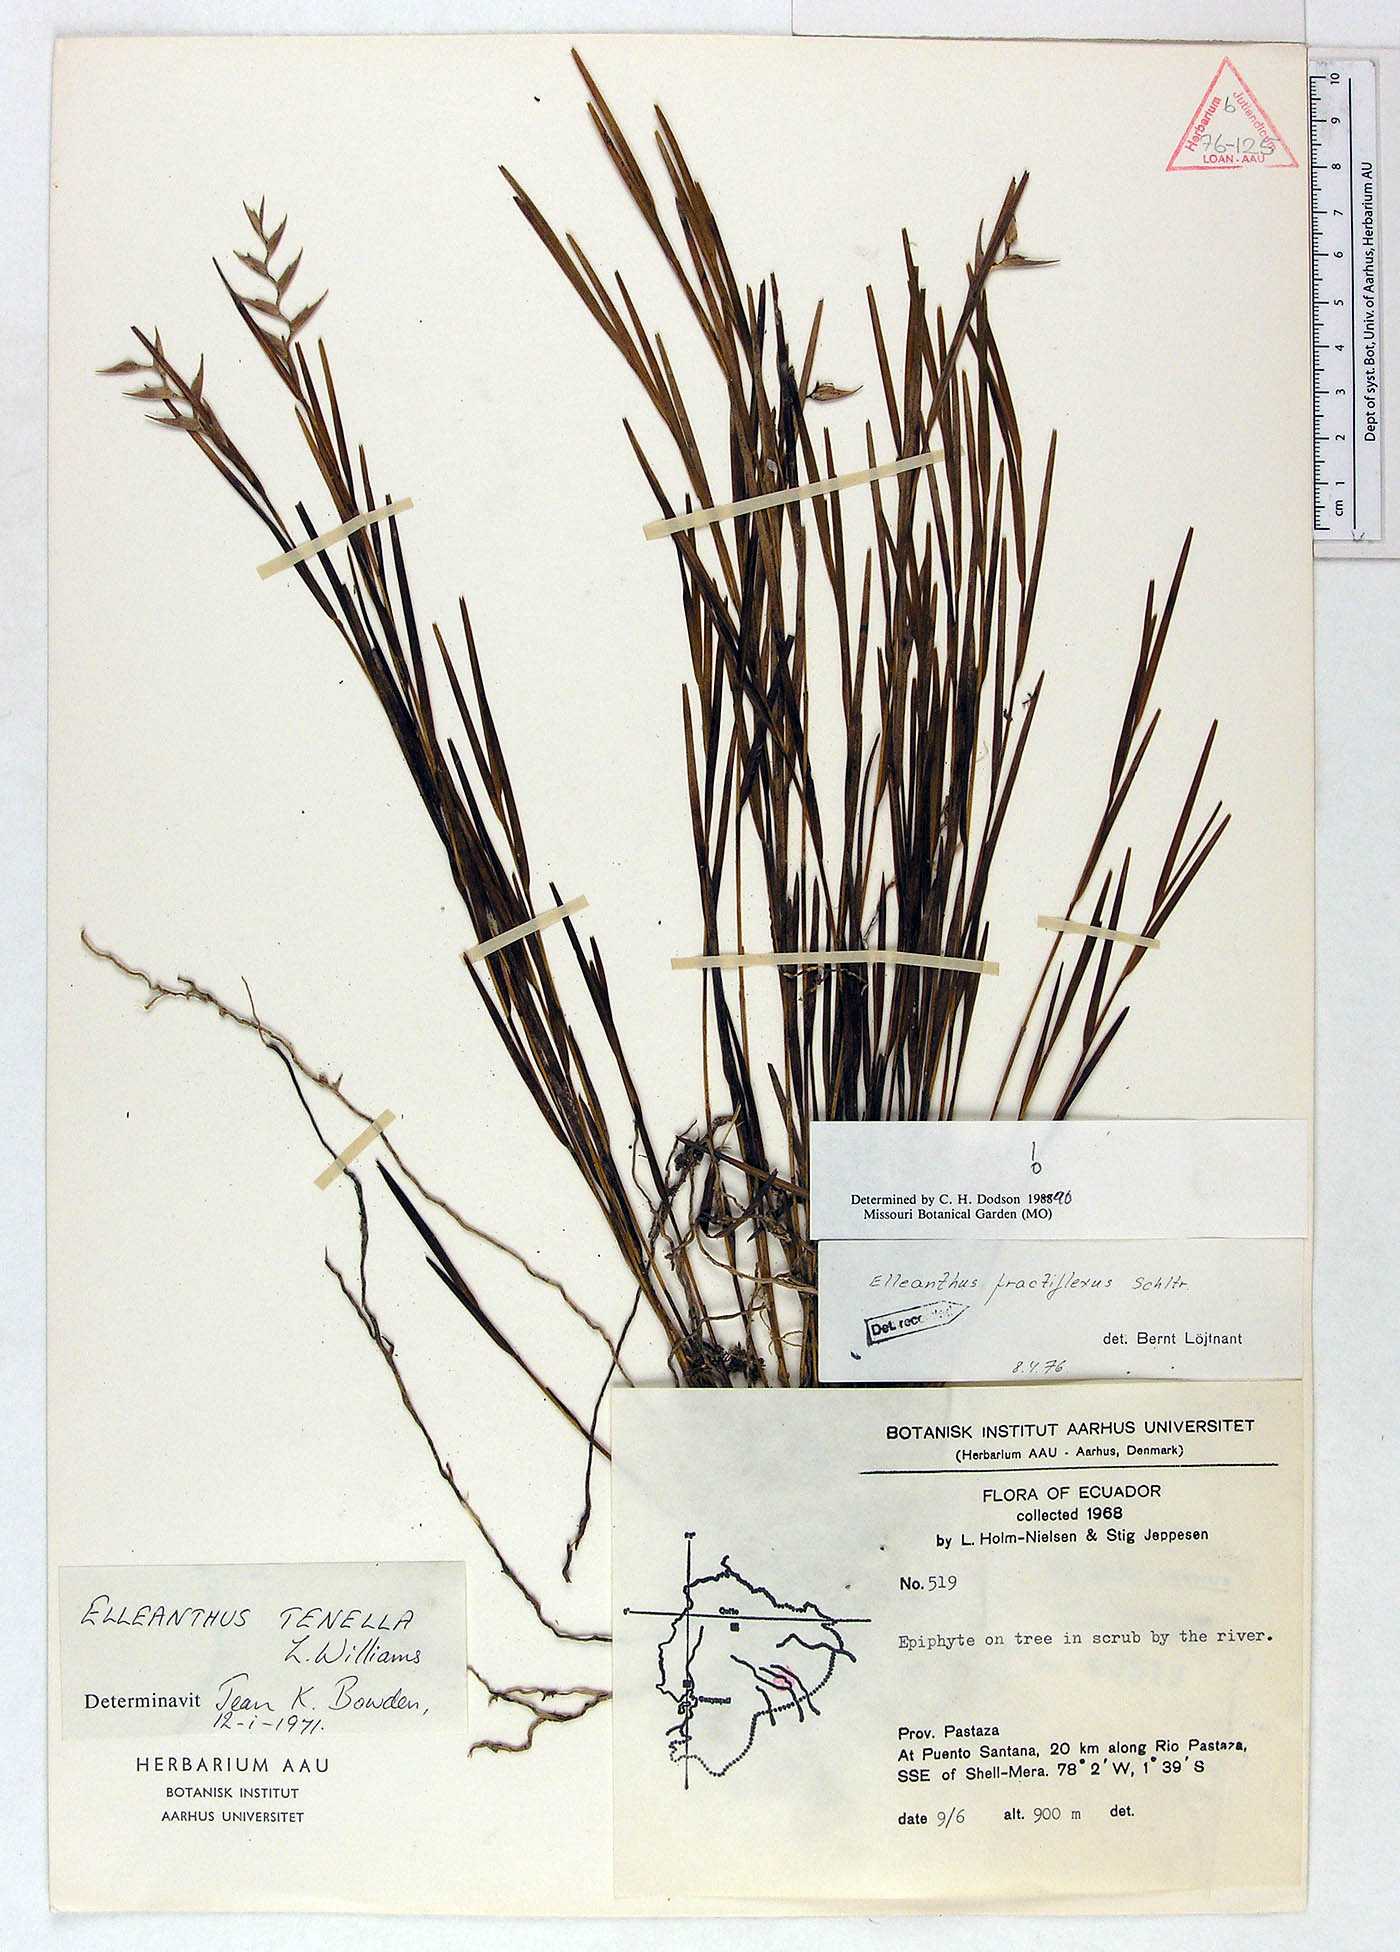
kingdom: Plantae
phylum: Tracheophyta
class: Magnoliopsida
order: Gentianales
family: Rubiaceae
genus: Palicourea
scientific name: Palicourea guianensis
